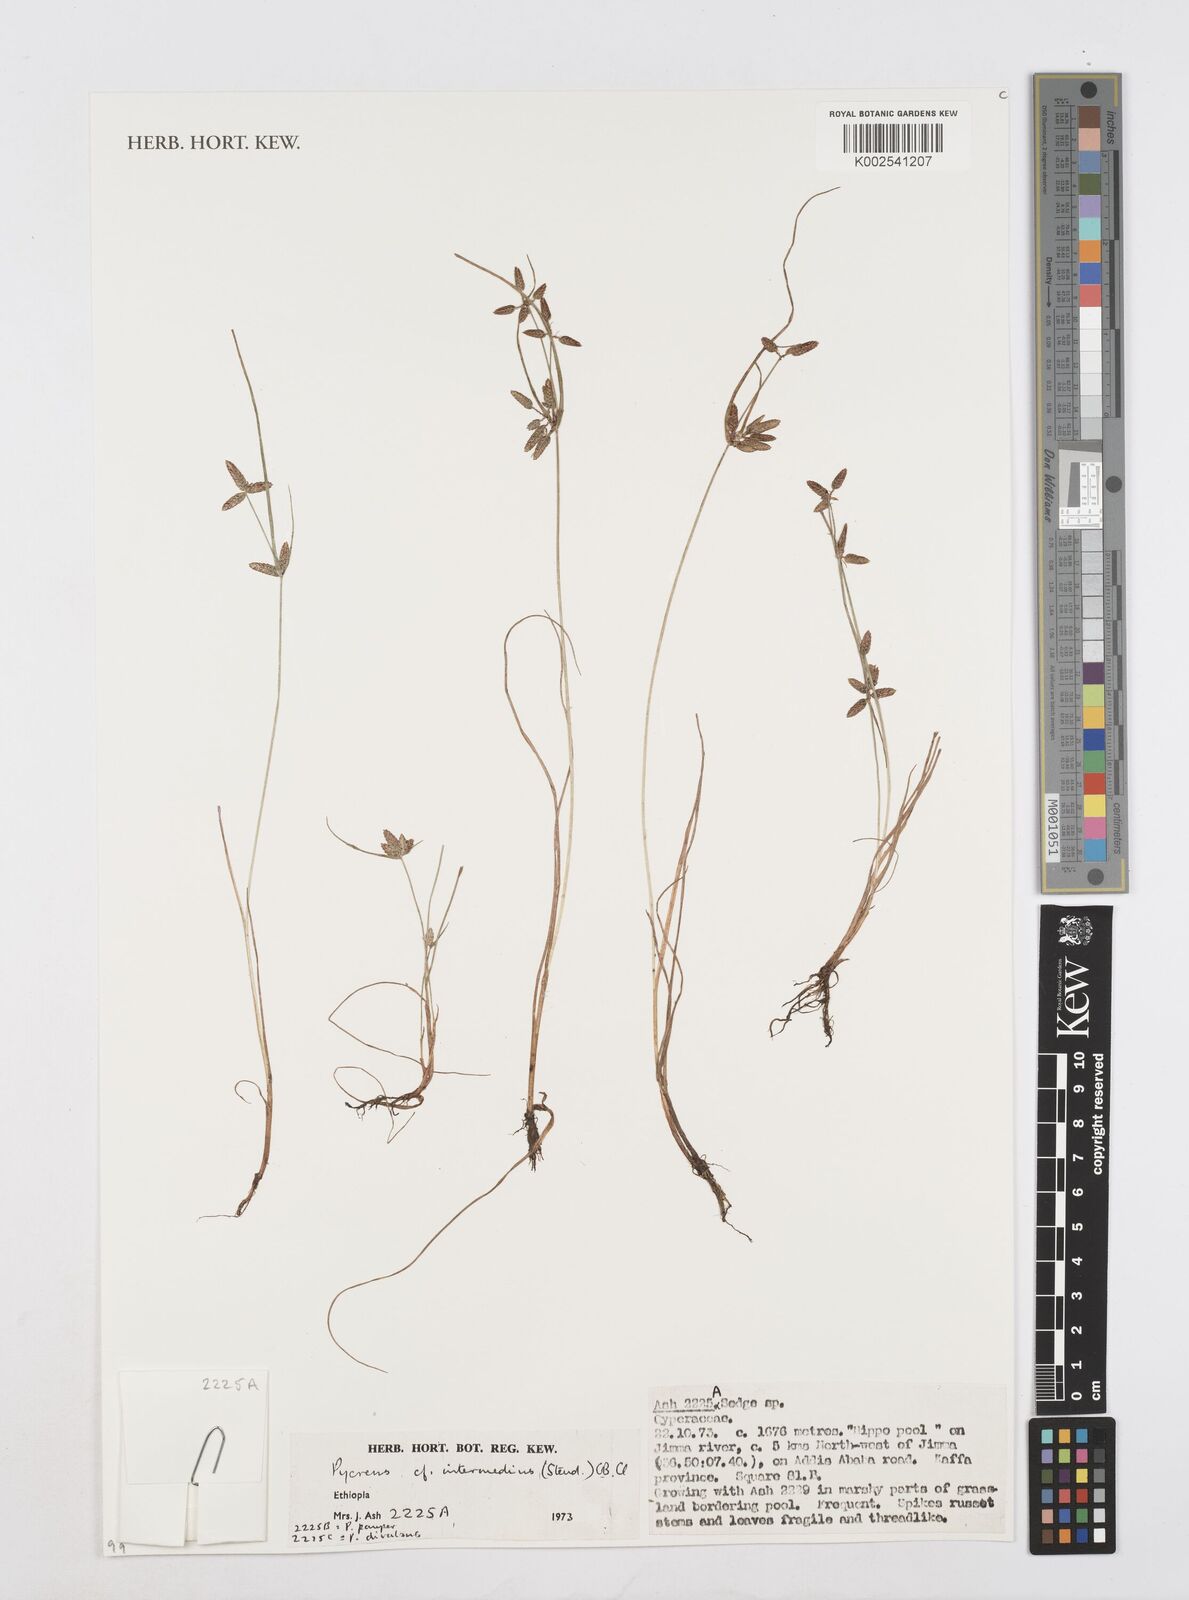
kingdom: Plantae
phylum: Tracheophyta
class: Liliopsida
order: Poales
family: Cyperaceae
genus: Cyperus
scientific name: Cyperus flavescens
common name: Yellow galingale
